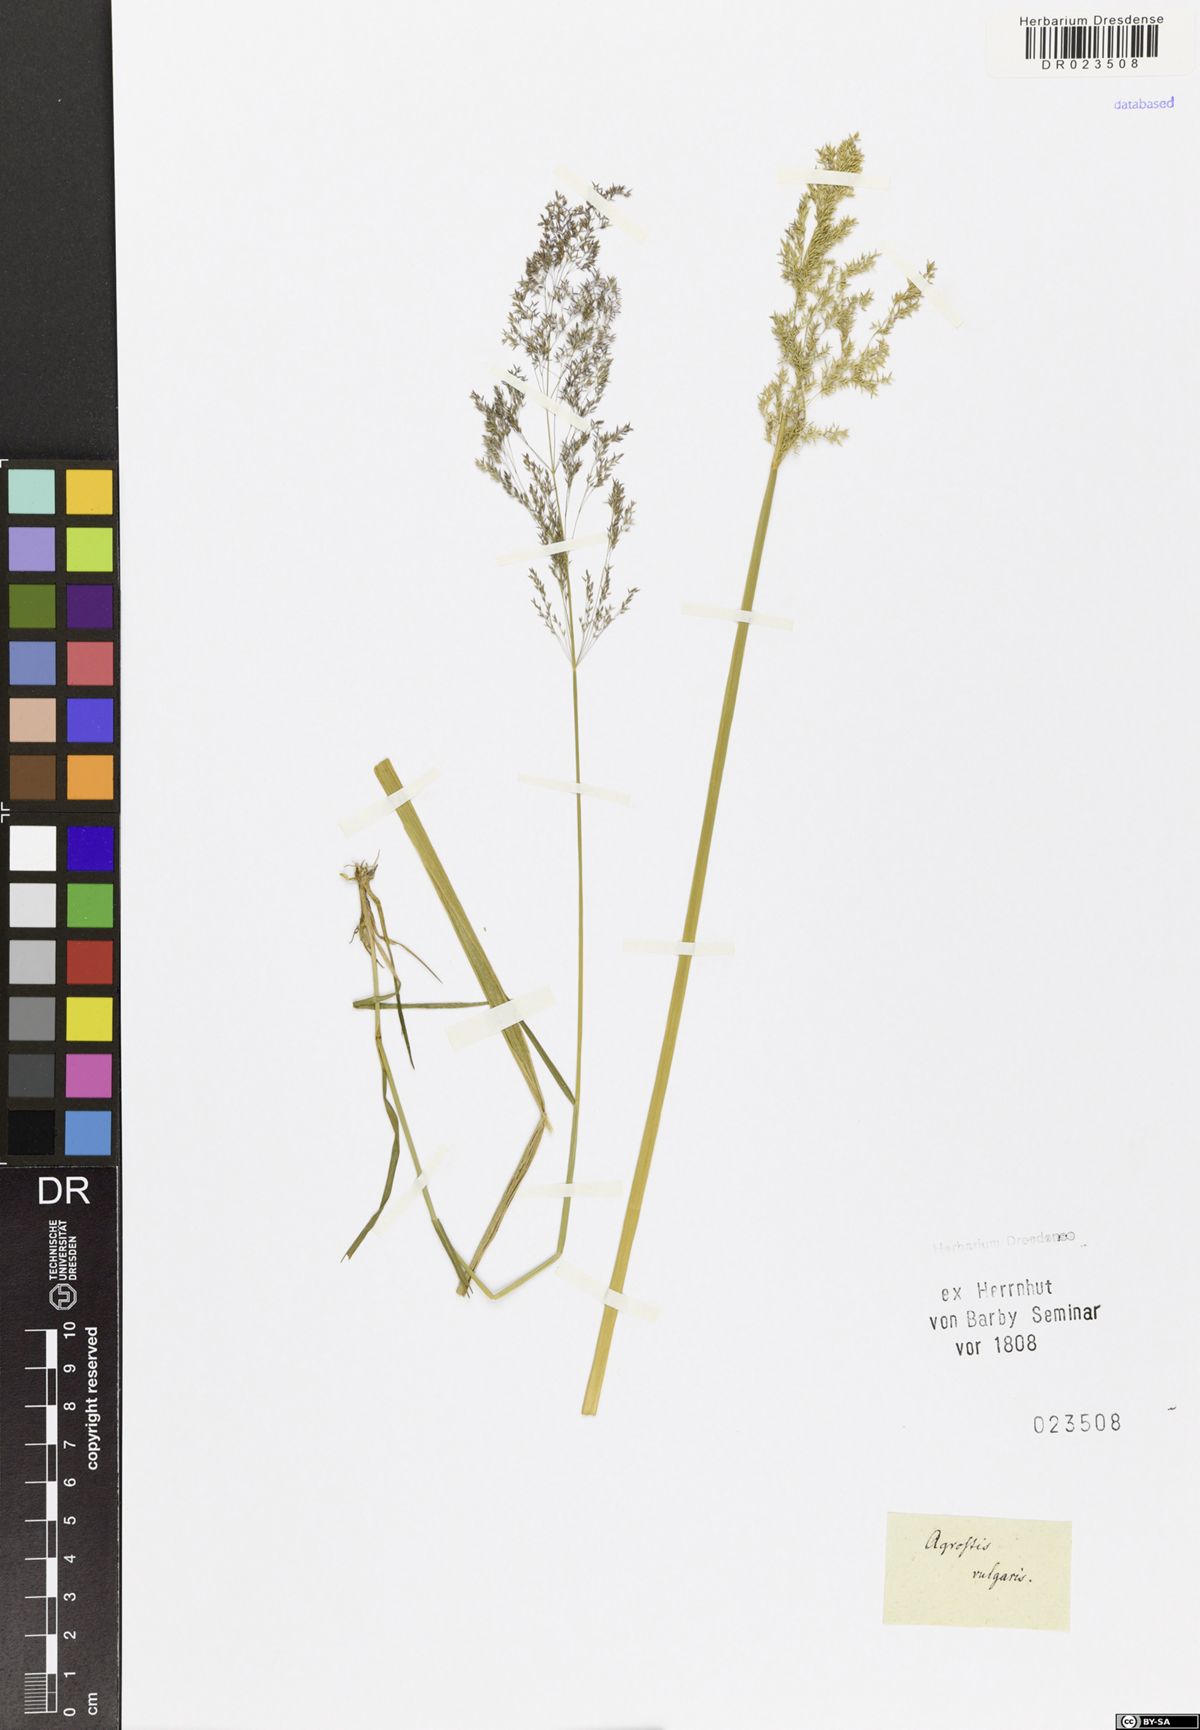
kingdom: Plantae
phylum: Tracheophyta
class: Liliopsida
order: Poales
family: Poaceae
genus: Agrostis
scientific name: Agrostis capillaris
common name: Colonial bentgrass
